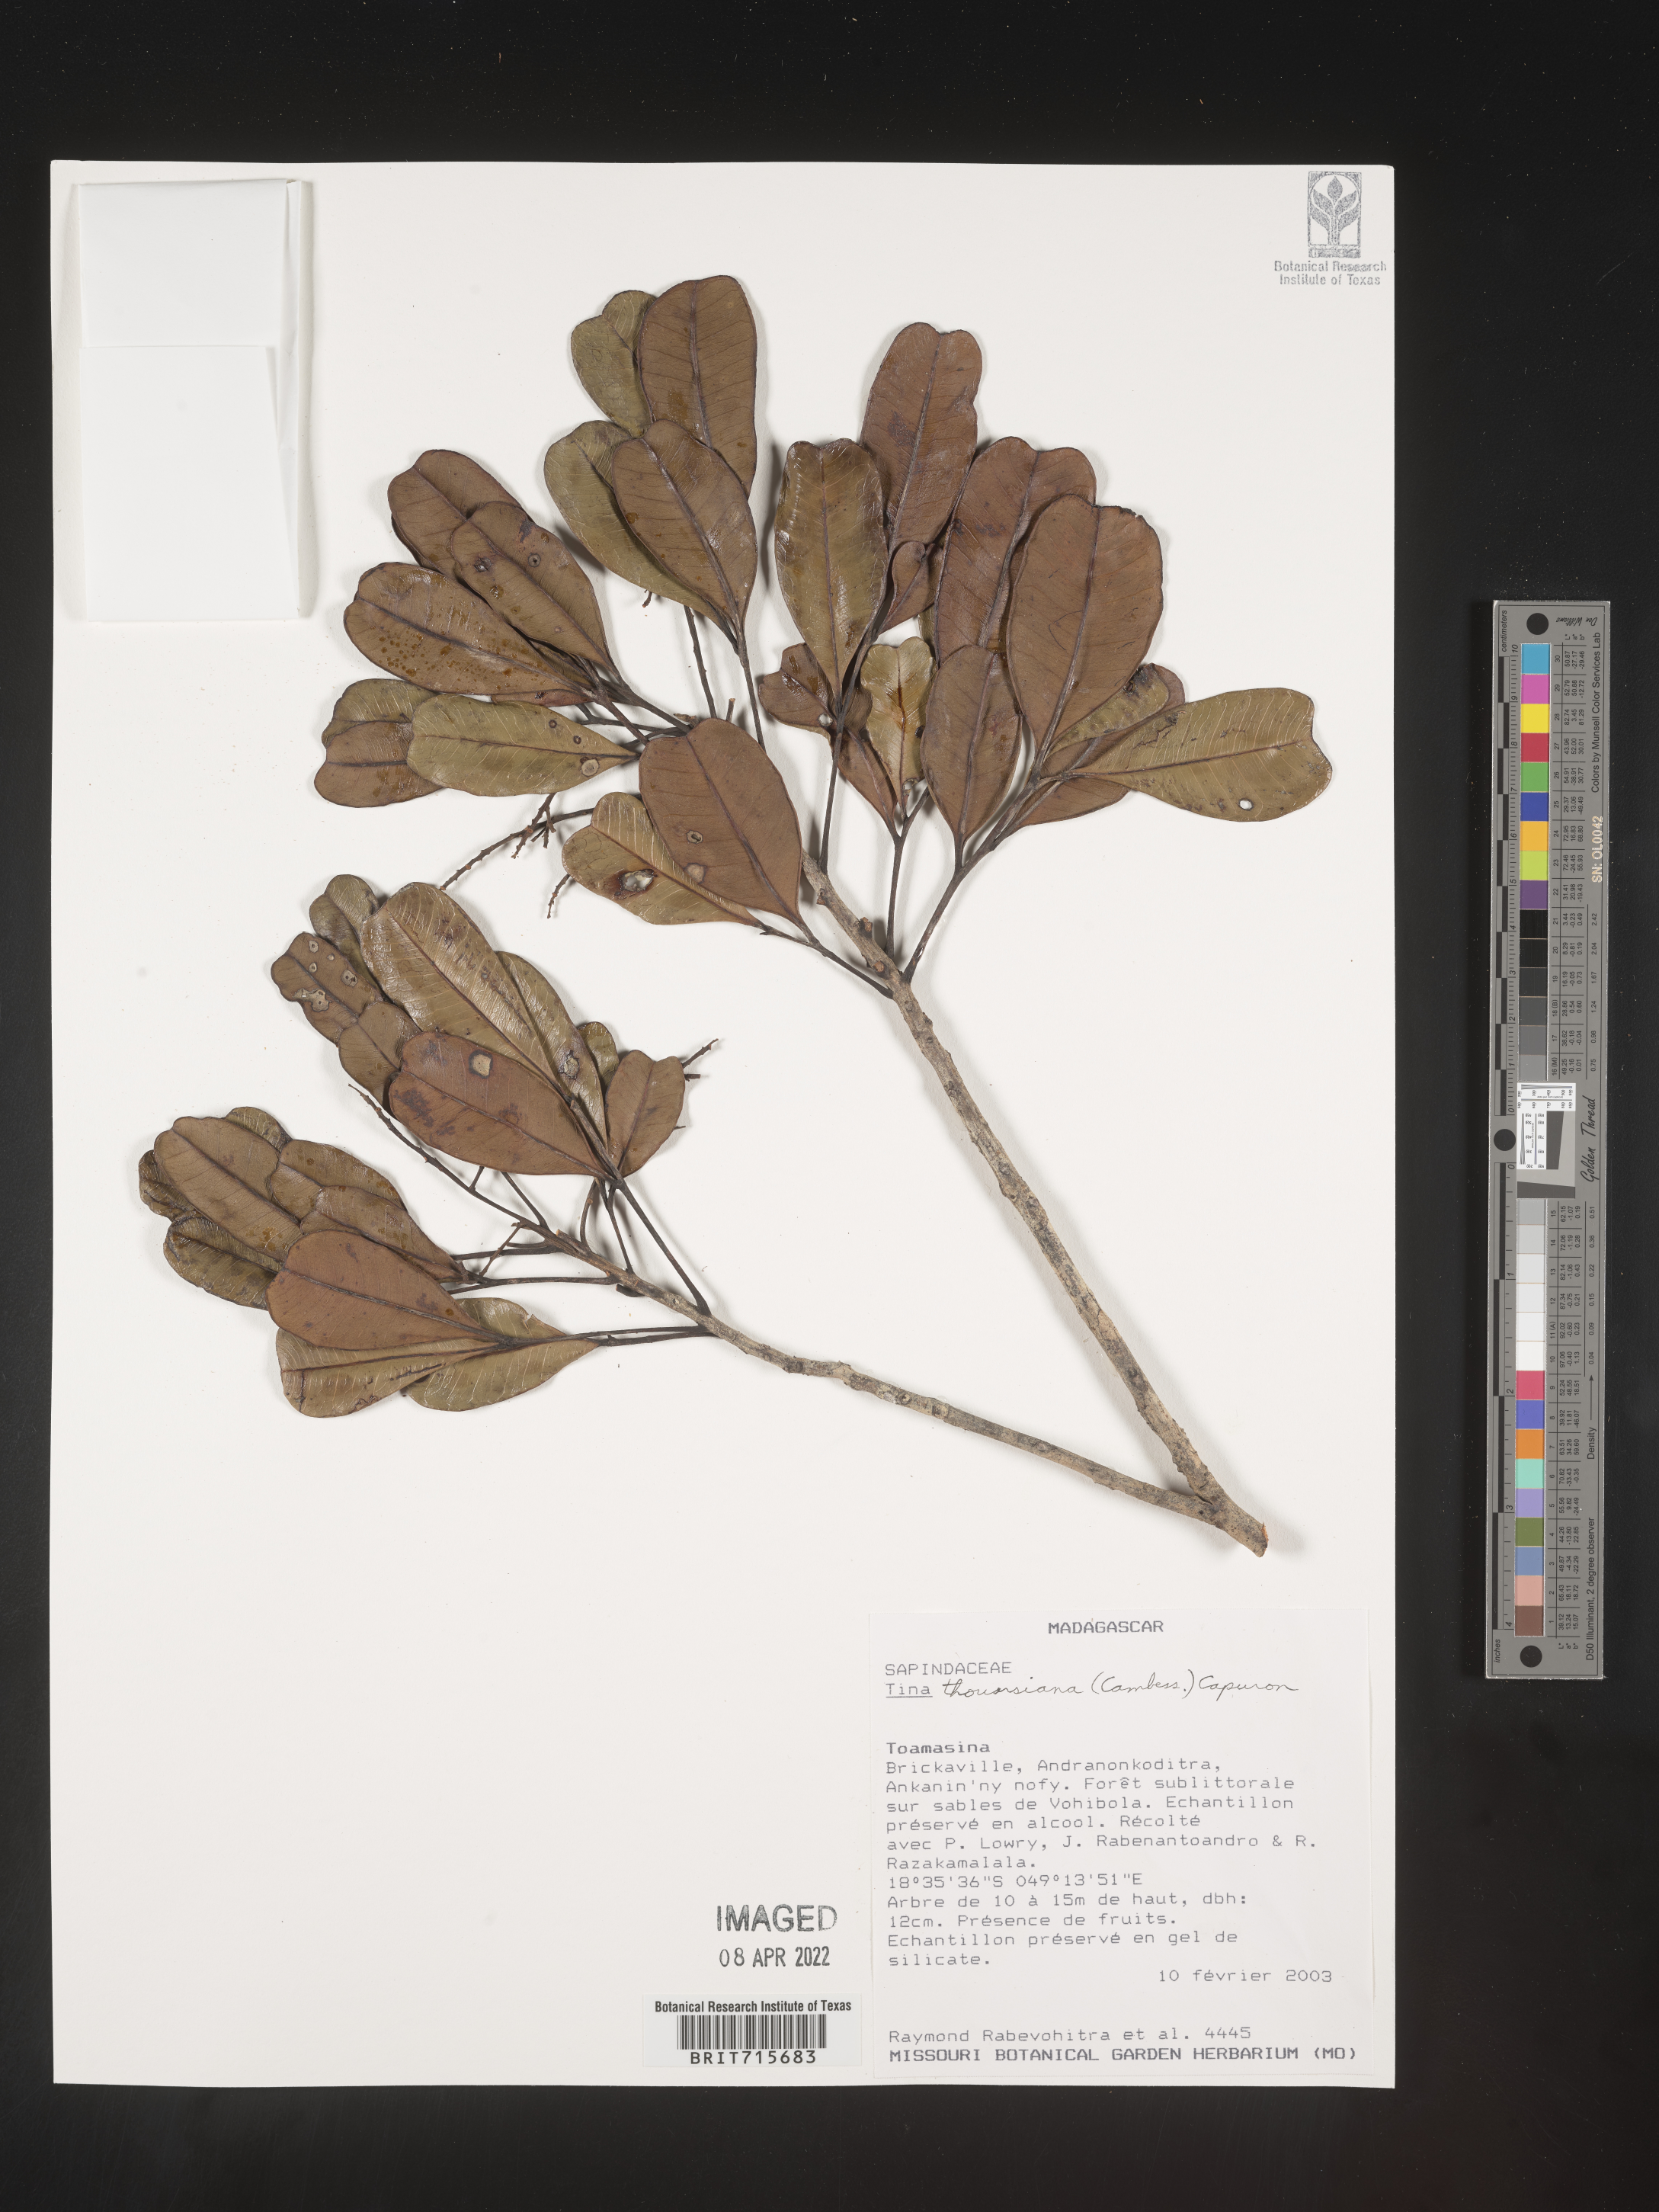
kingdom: Plantae
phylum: Tracheophyta
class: Magnoliopsida
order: Sapindales
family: Sapindaceae
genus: Tina
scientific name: Tina
